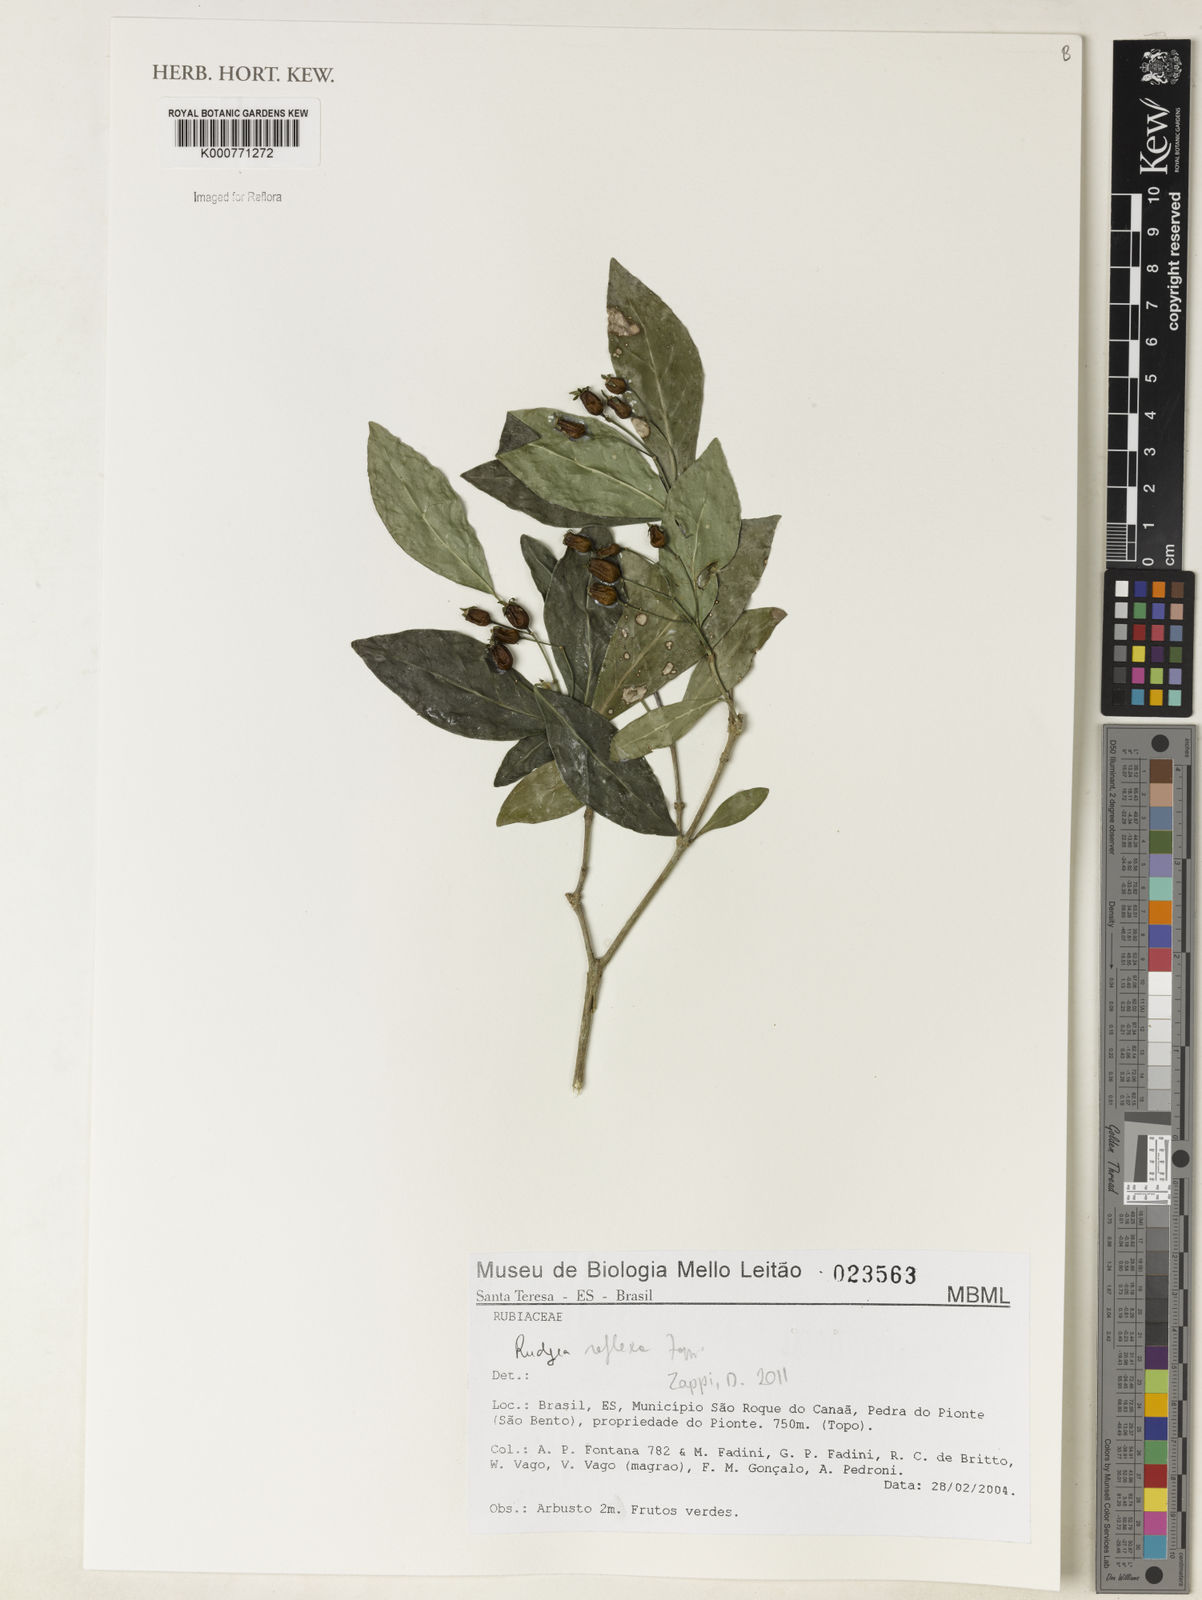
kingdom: Plantae
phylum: Tracheophyta
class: Magnoliopsida
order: Gentianales
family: Rubiaceae
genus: Rudgea
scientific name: Rudgea reflexa
